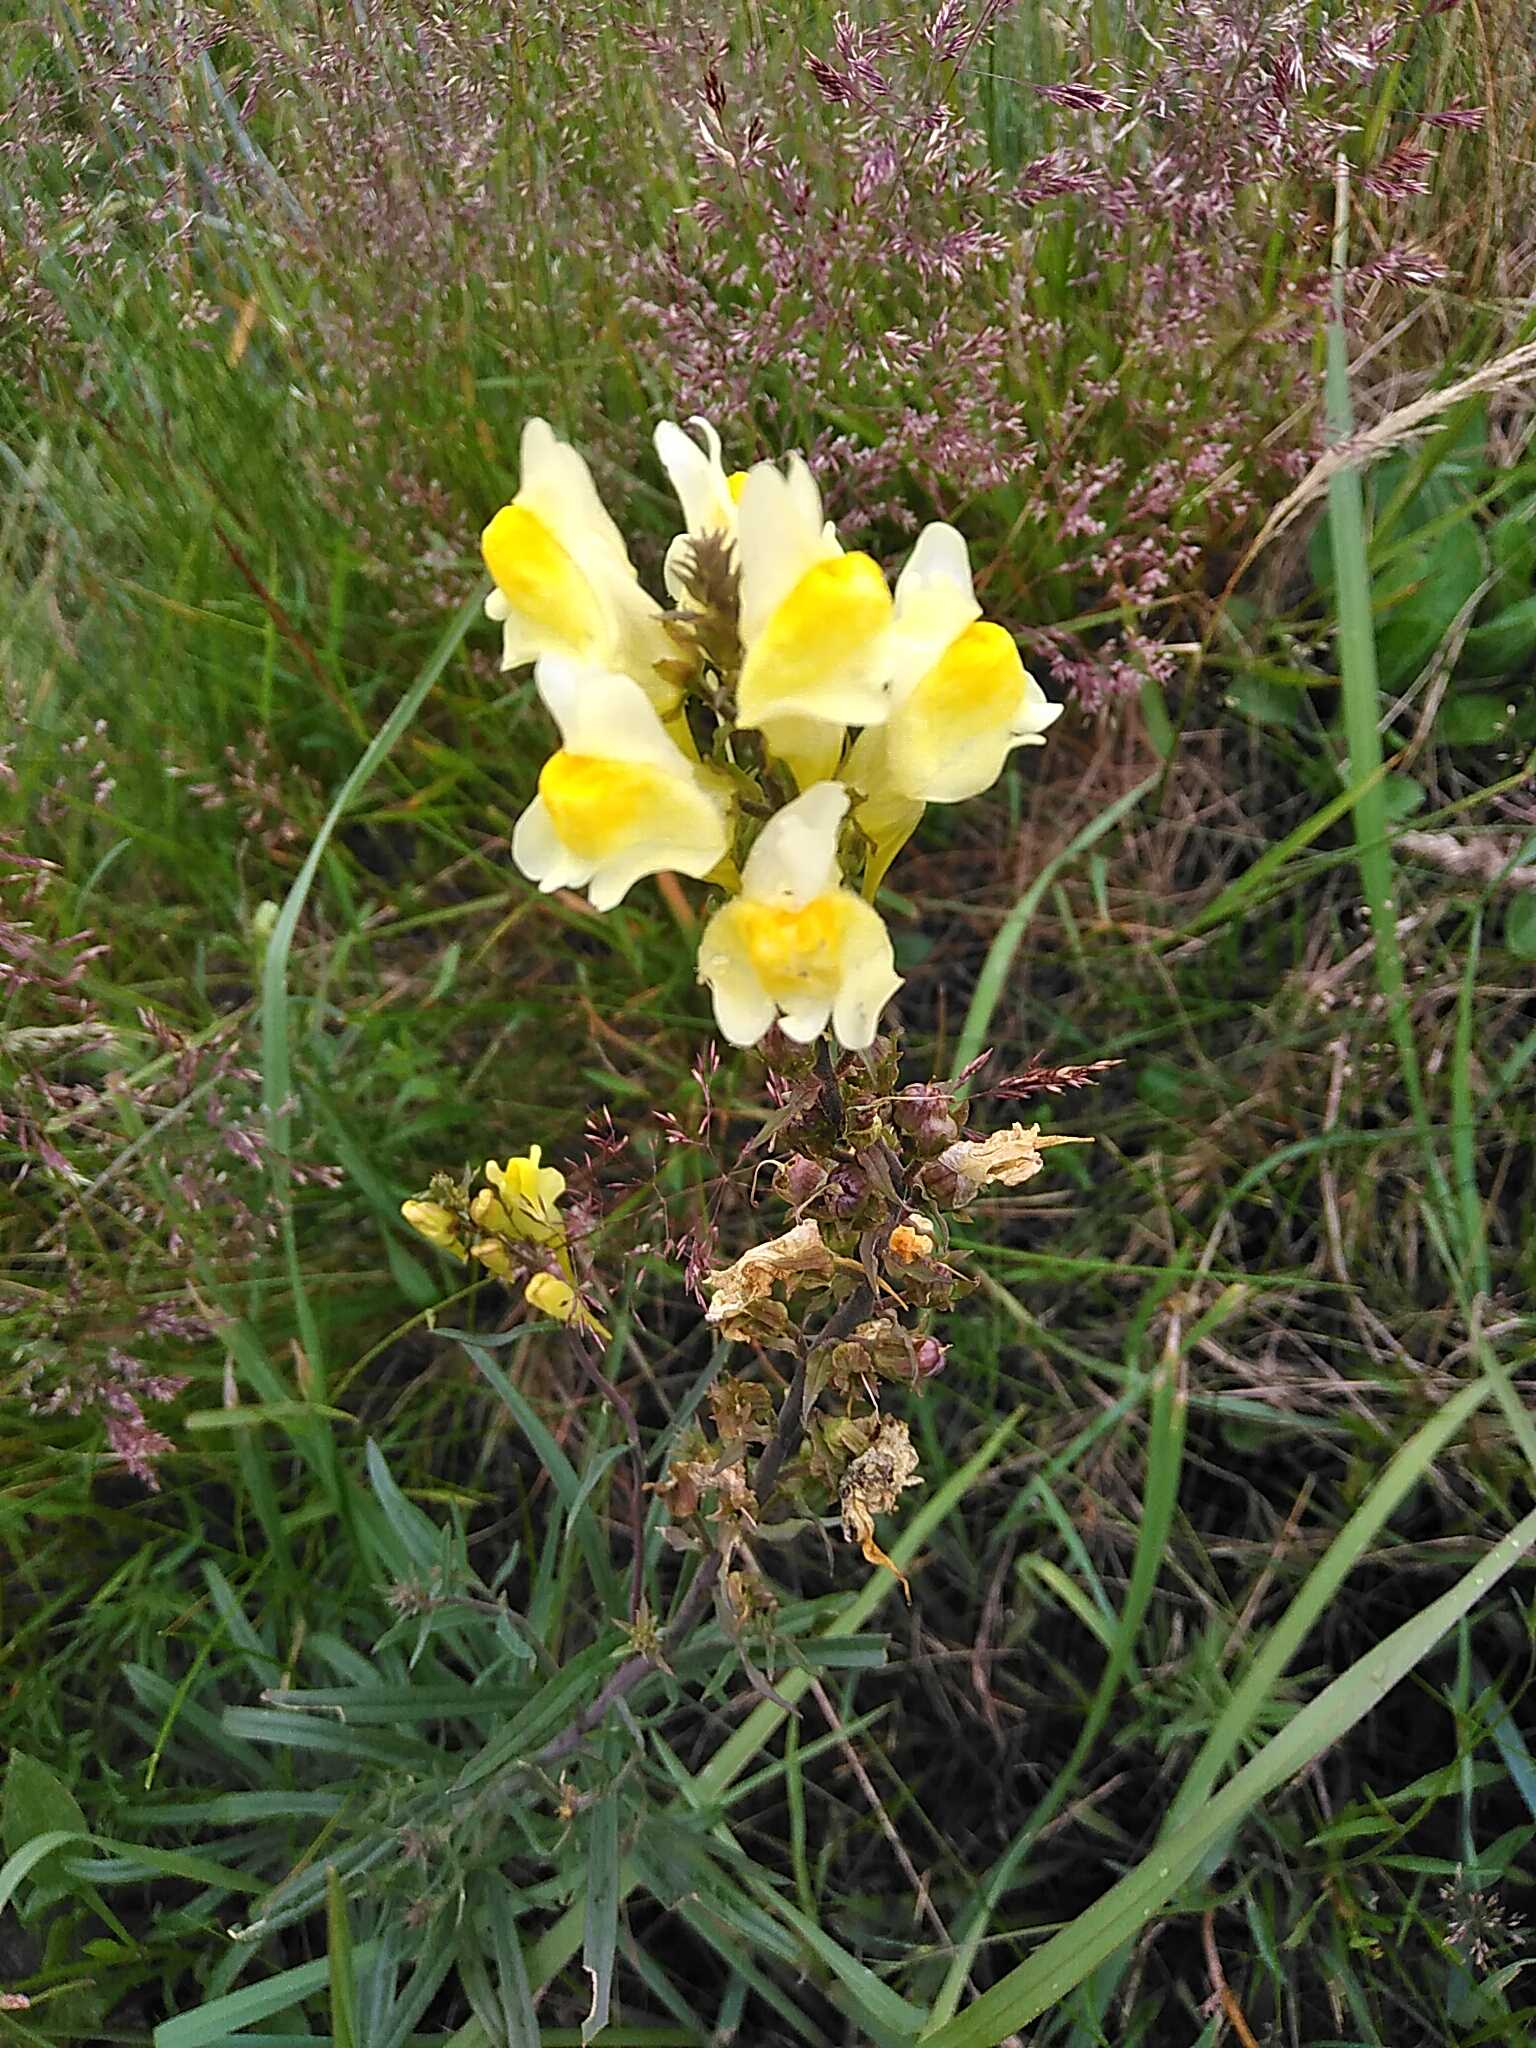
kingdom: Plantae
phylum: Tracheophyta
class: Magnoliopsida
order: Lamiales
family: Plantaginaceae
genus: Linaria
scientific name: Linaria vulgaris
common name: Almindelig torskemund
